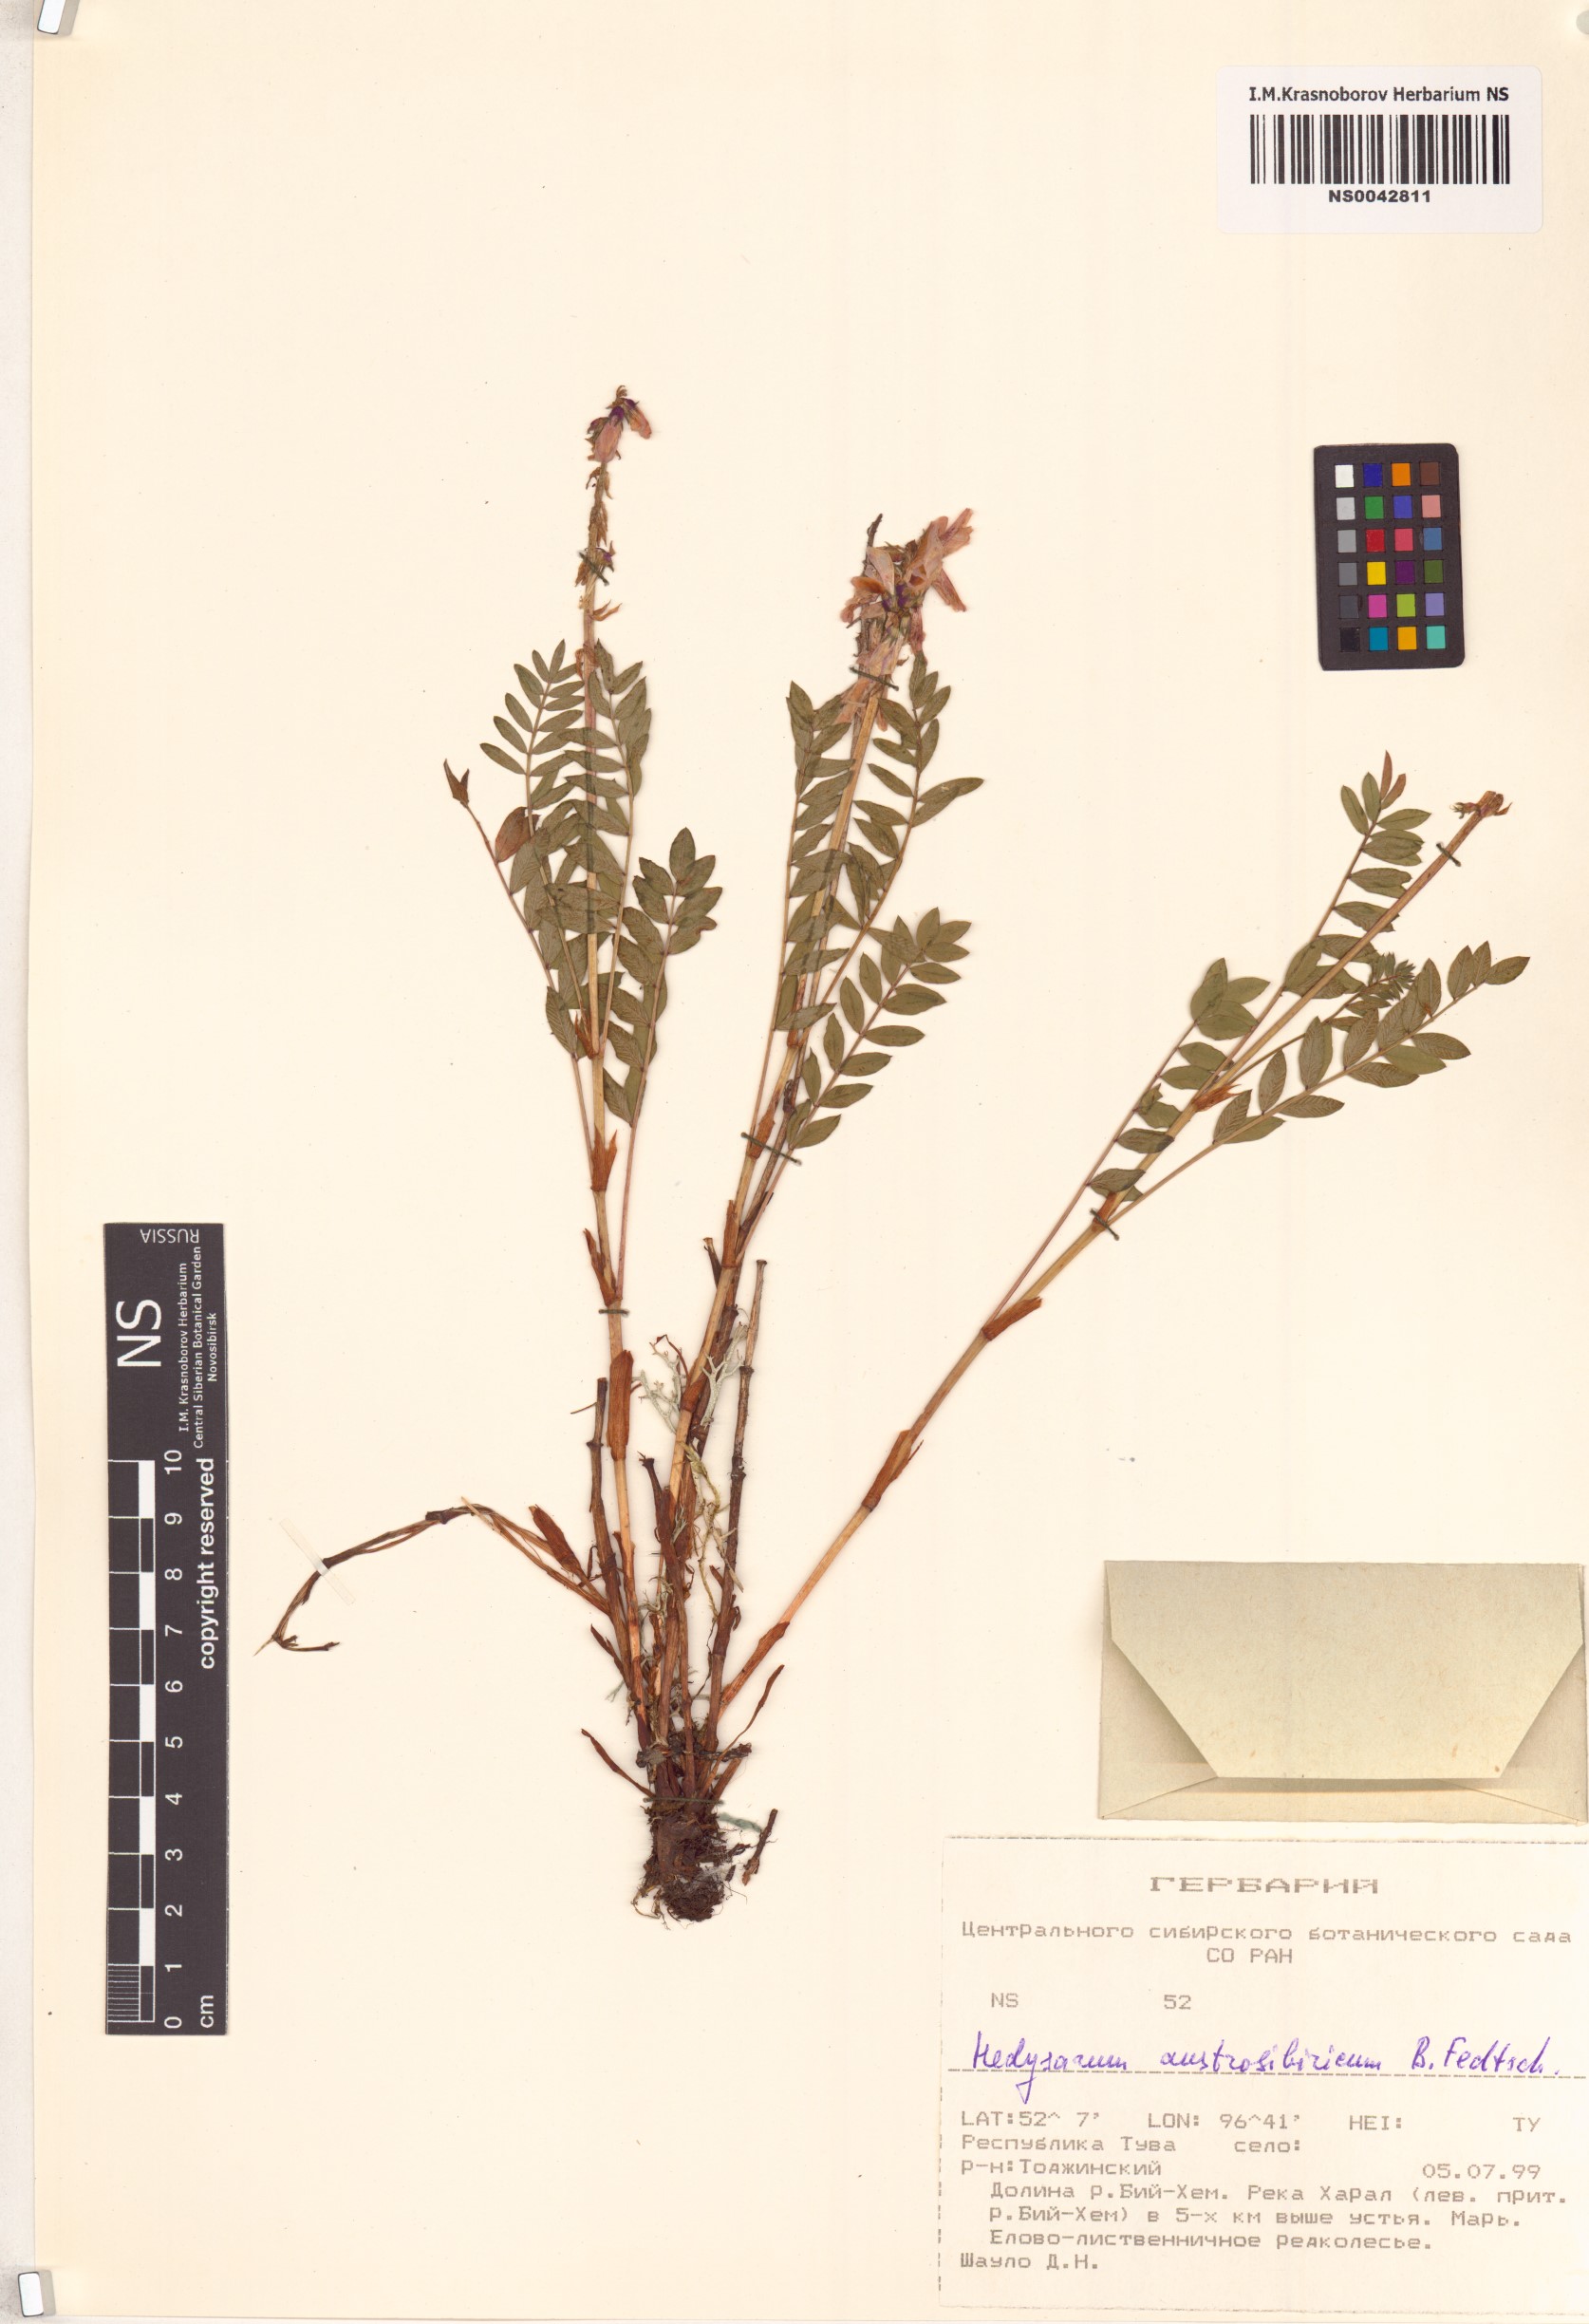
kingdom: Plantae
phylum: Tracheophyta
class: Magnoliopsida
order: Fabales
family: Fabaceae
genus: Hedysarum
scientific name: Hedysarum neglectum
